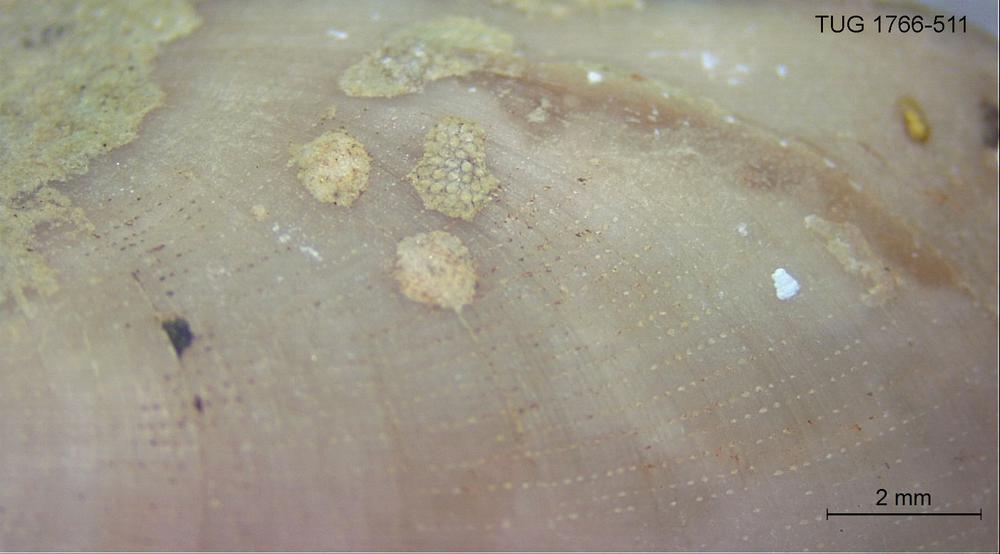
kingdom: Animalia
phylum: Bryozoa
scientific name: Bryozoa
